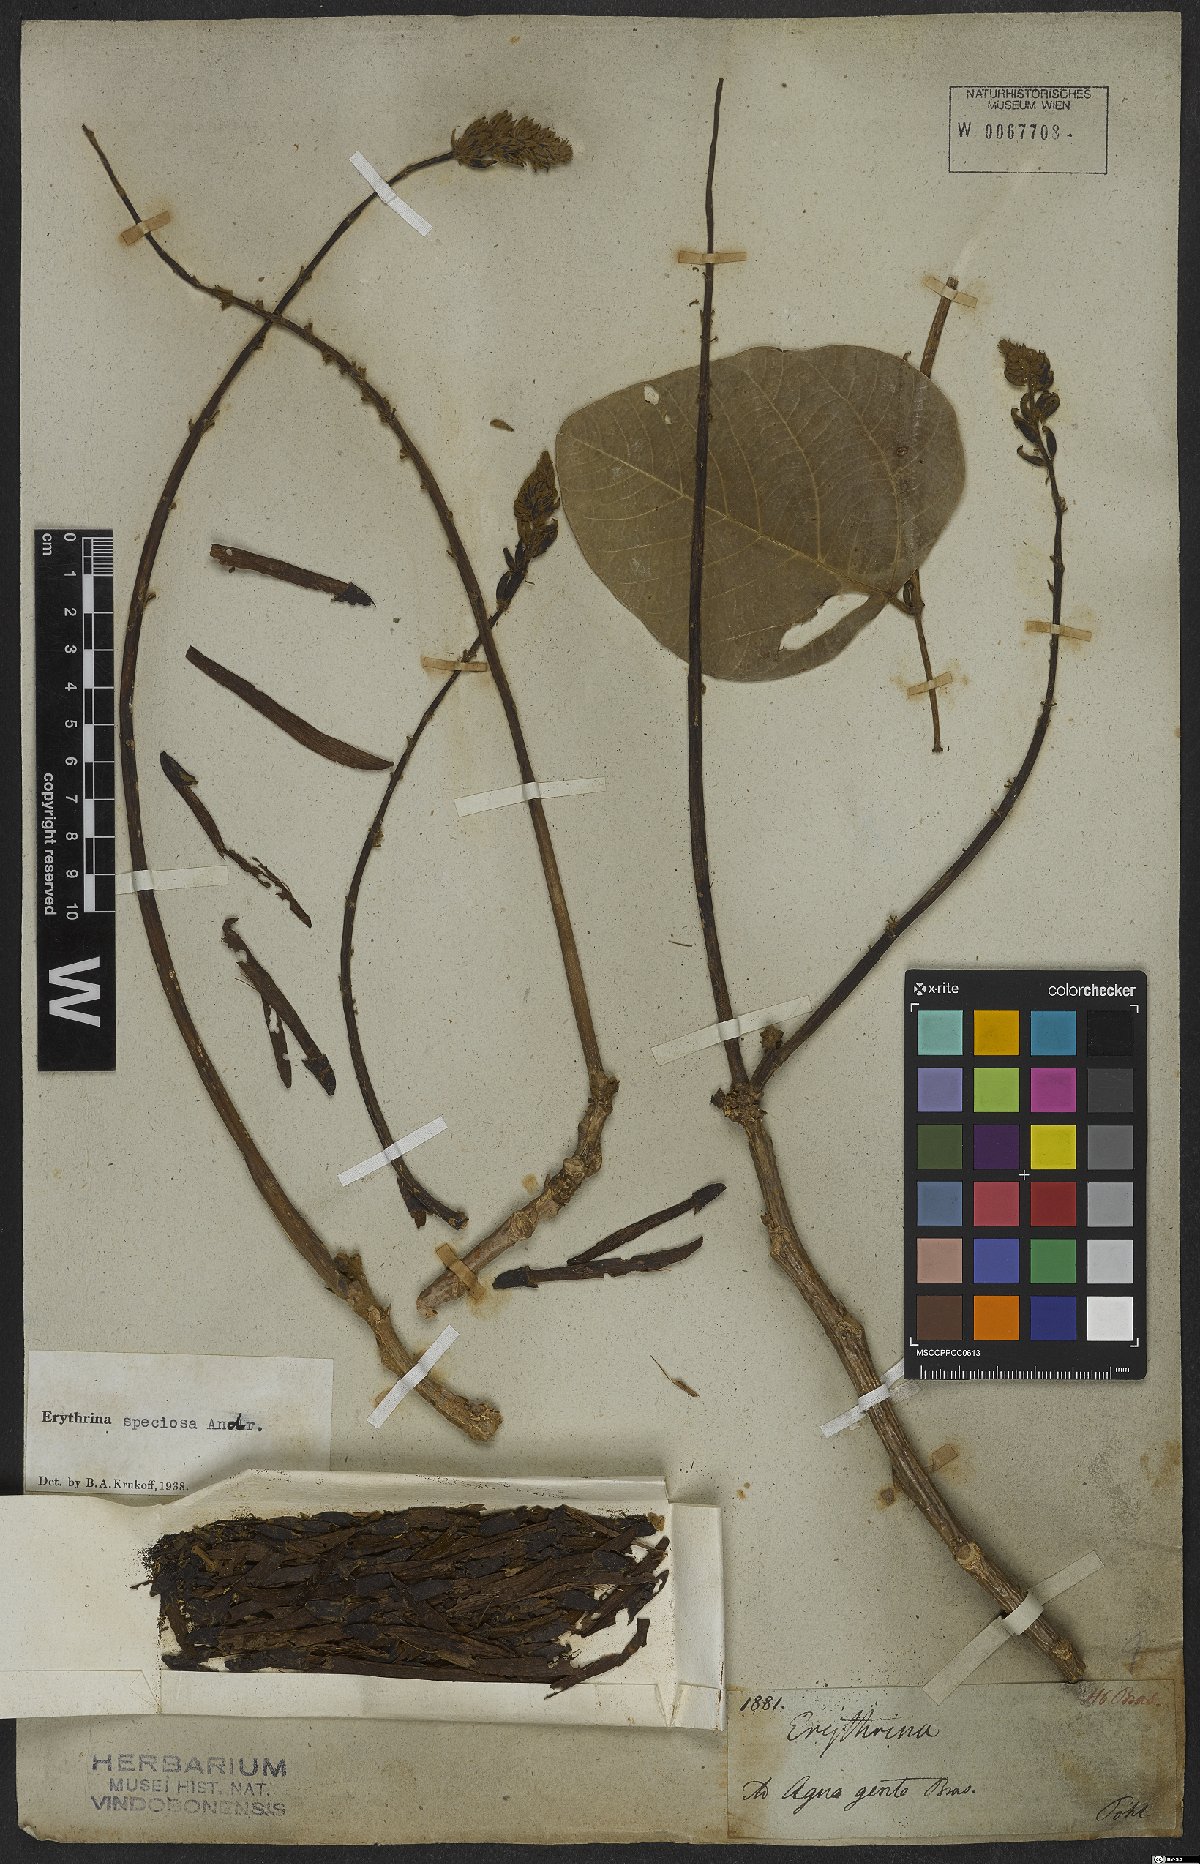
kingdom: Plantae
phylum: Tracheophyta
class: Magnoliopsida
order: Fabales
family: Fabaceae
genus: Erythrina
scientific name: Erythrina speciosa
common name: Coral tree
